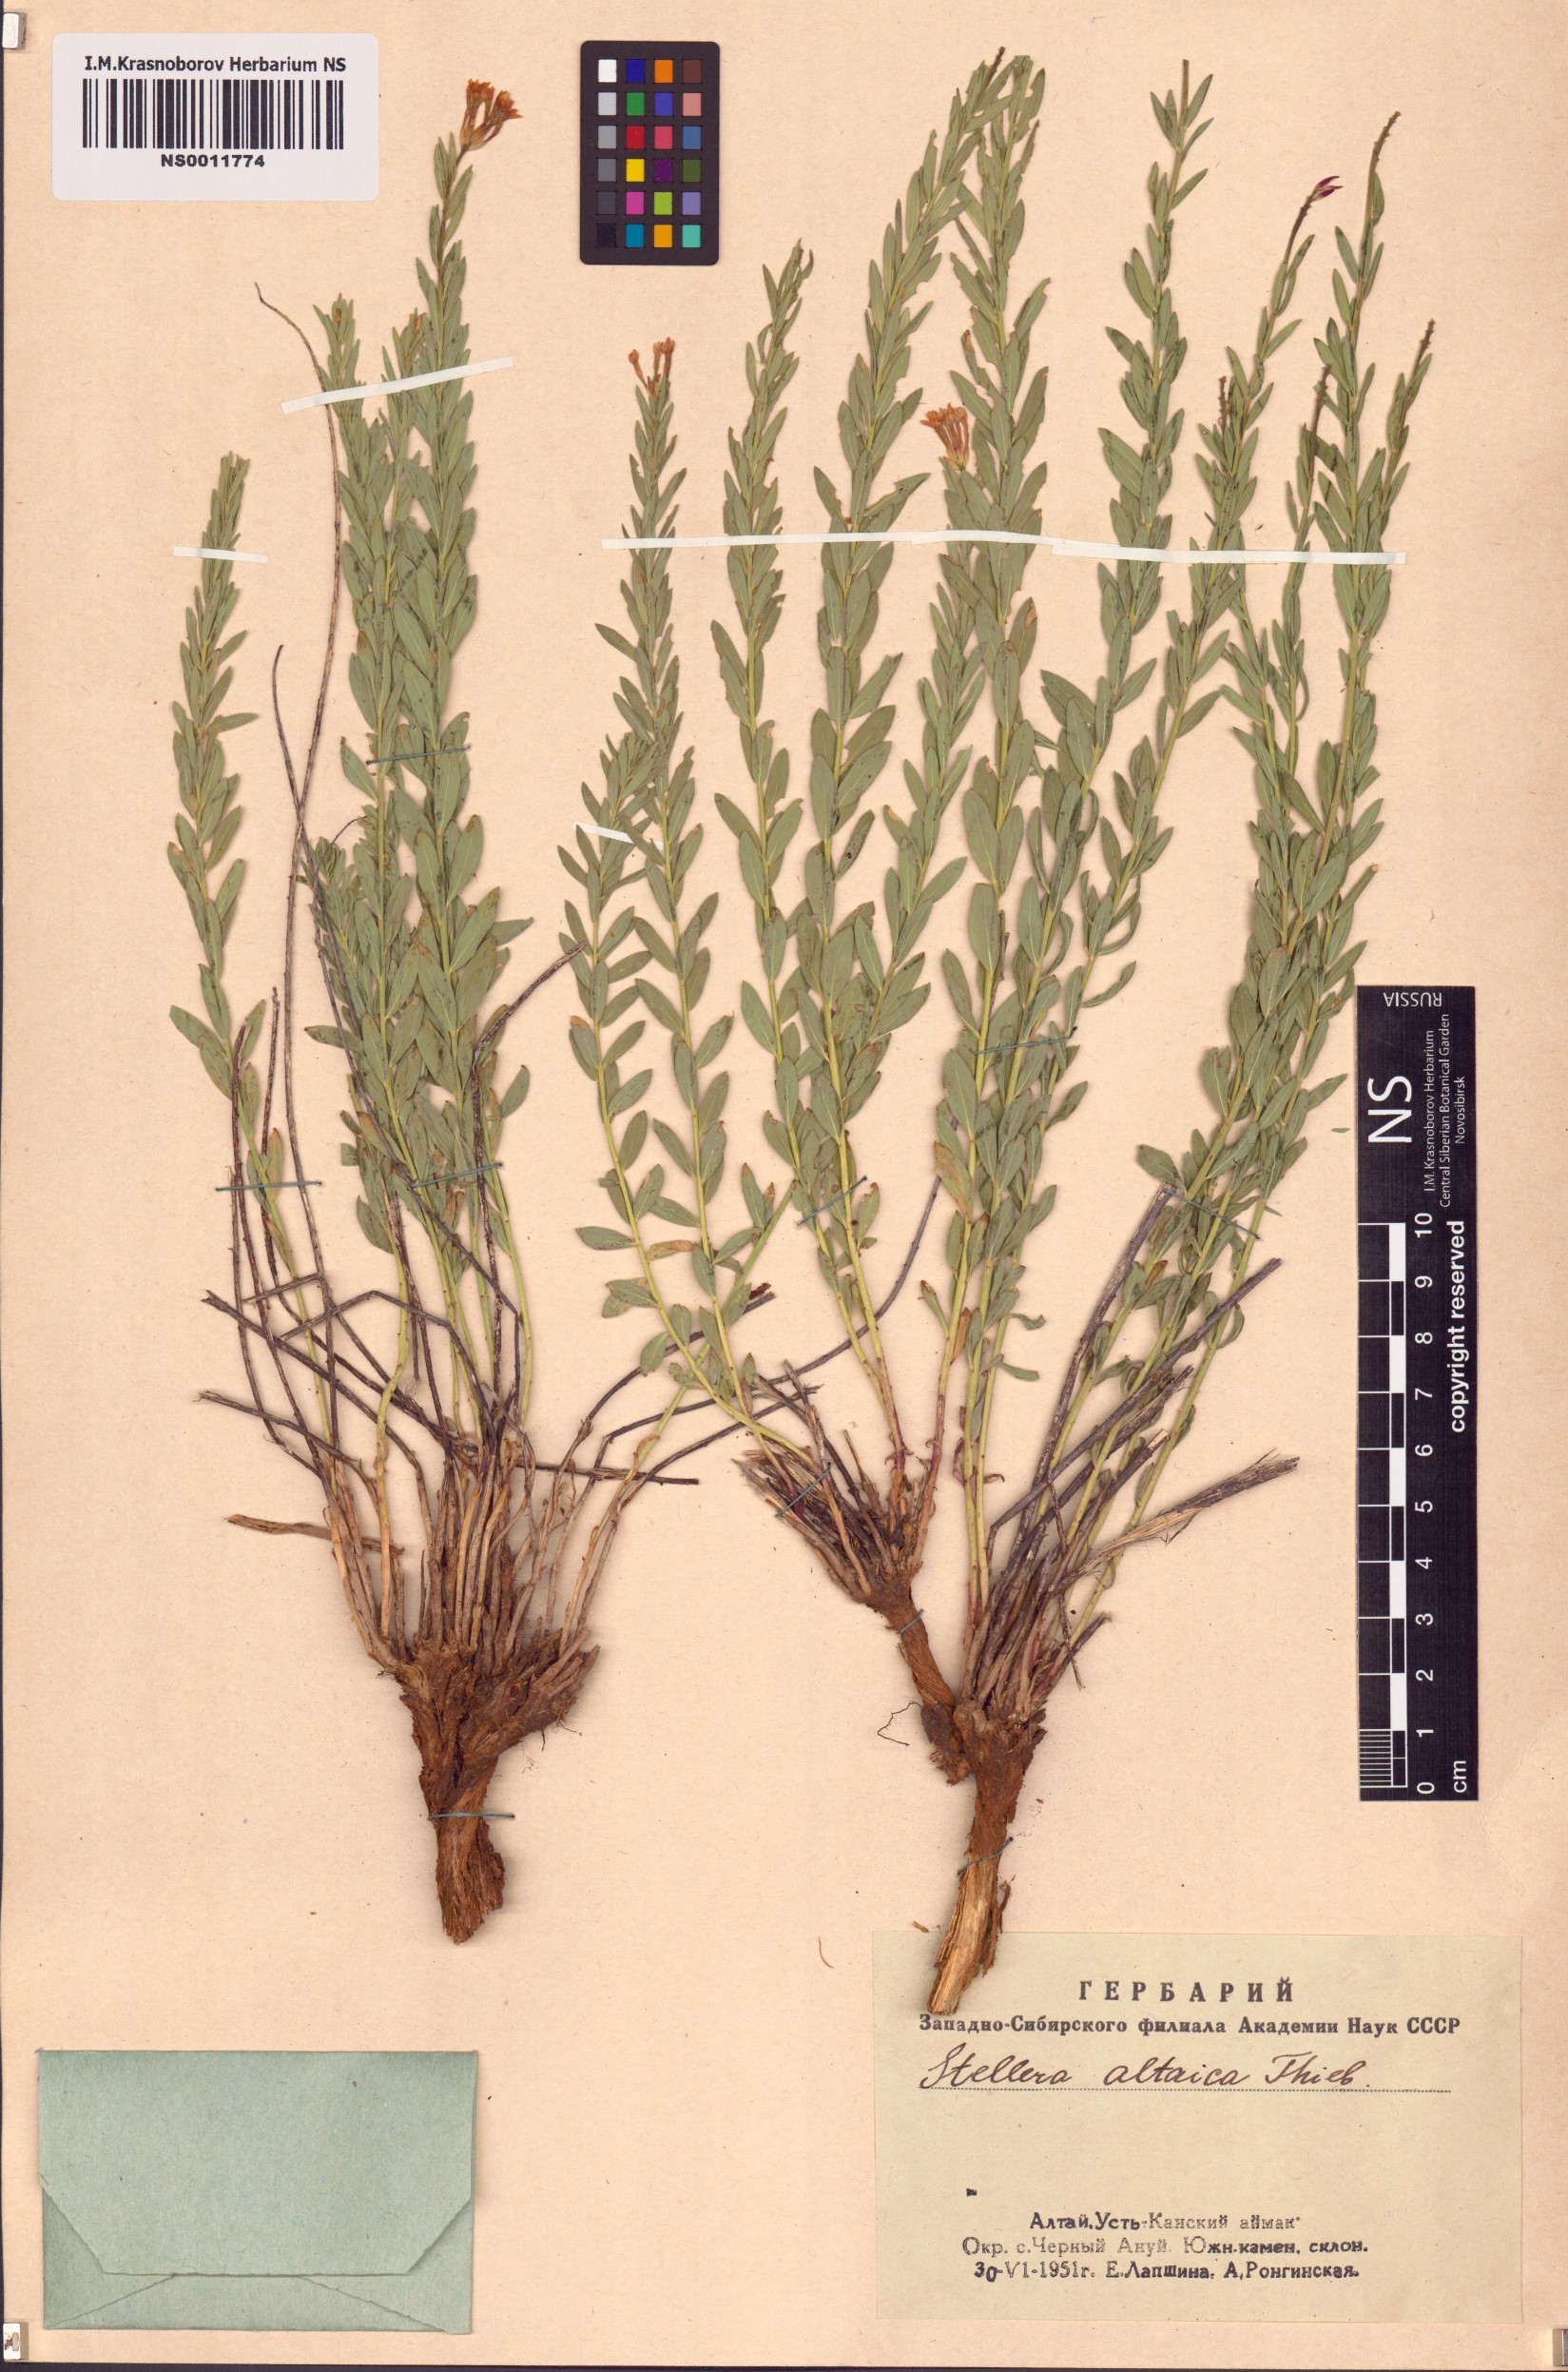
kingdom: Plantae
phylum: Tracheophyta
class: Magnoliopsida
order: Malvales
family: Thymelaeaceae
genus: Diarthron
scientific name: Diarthron altaicum
